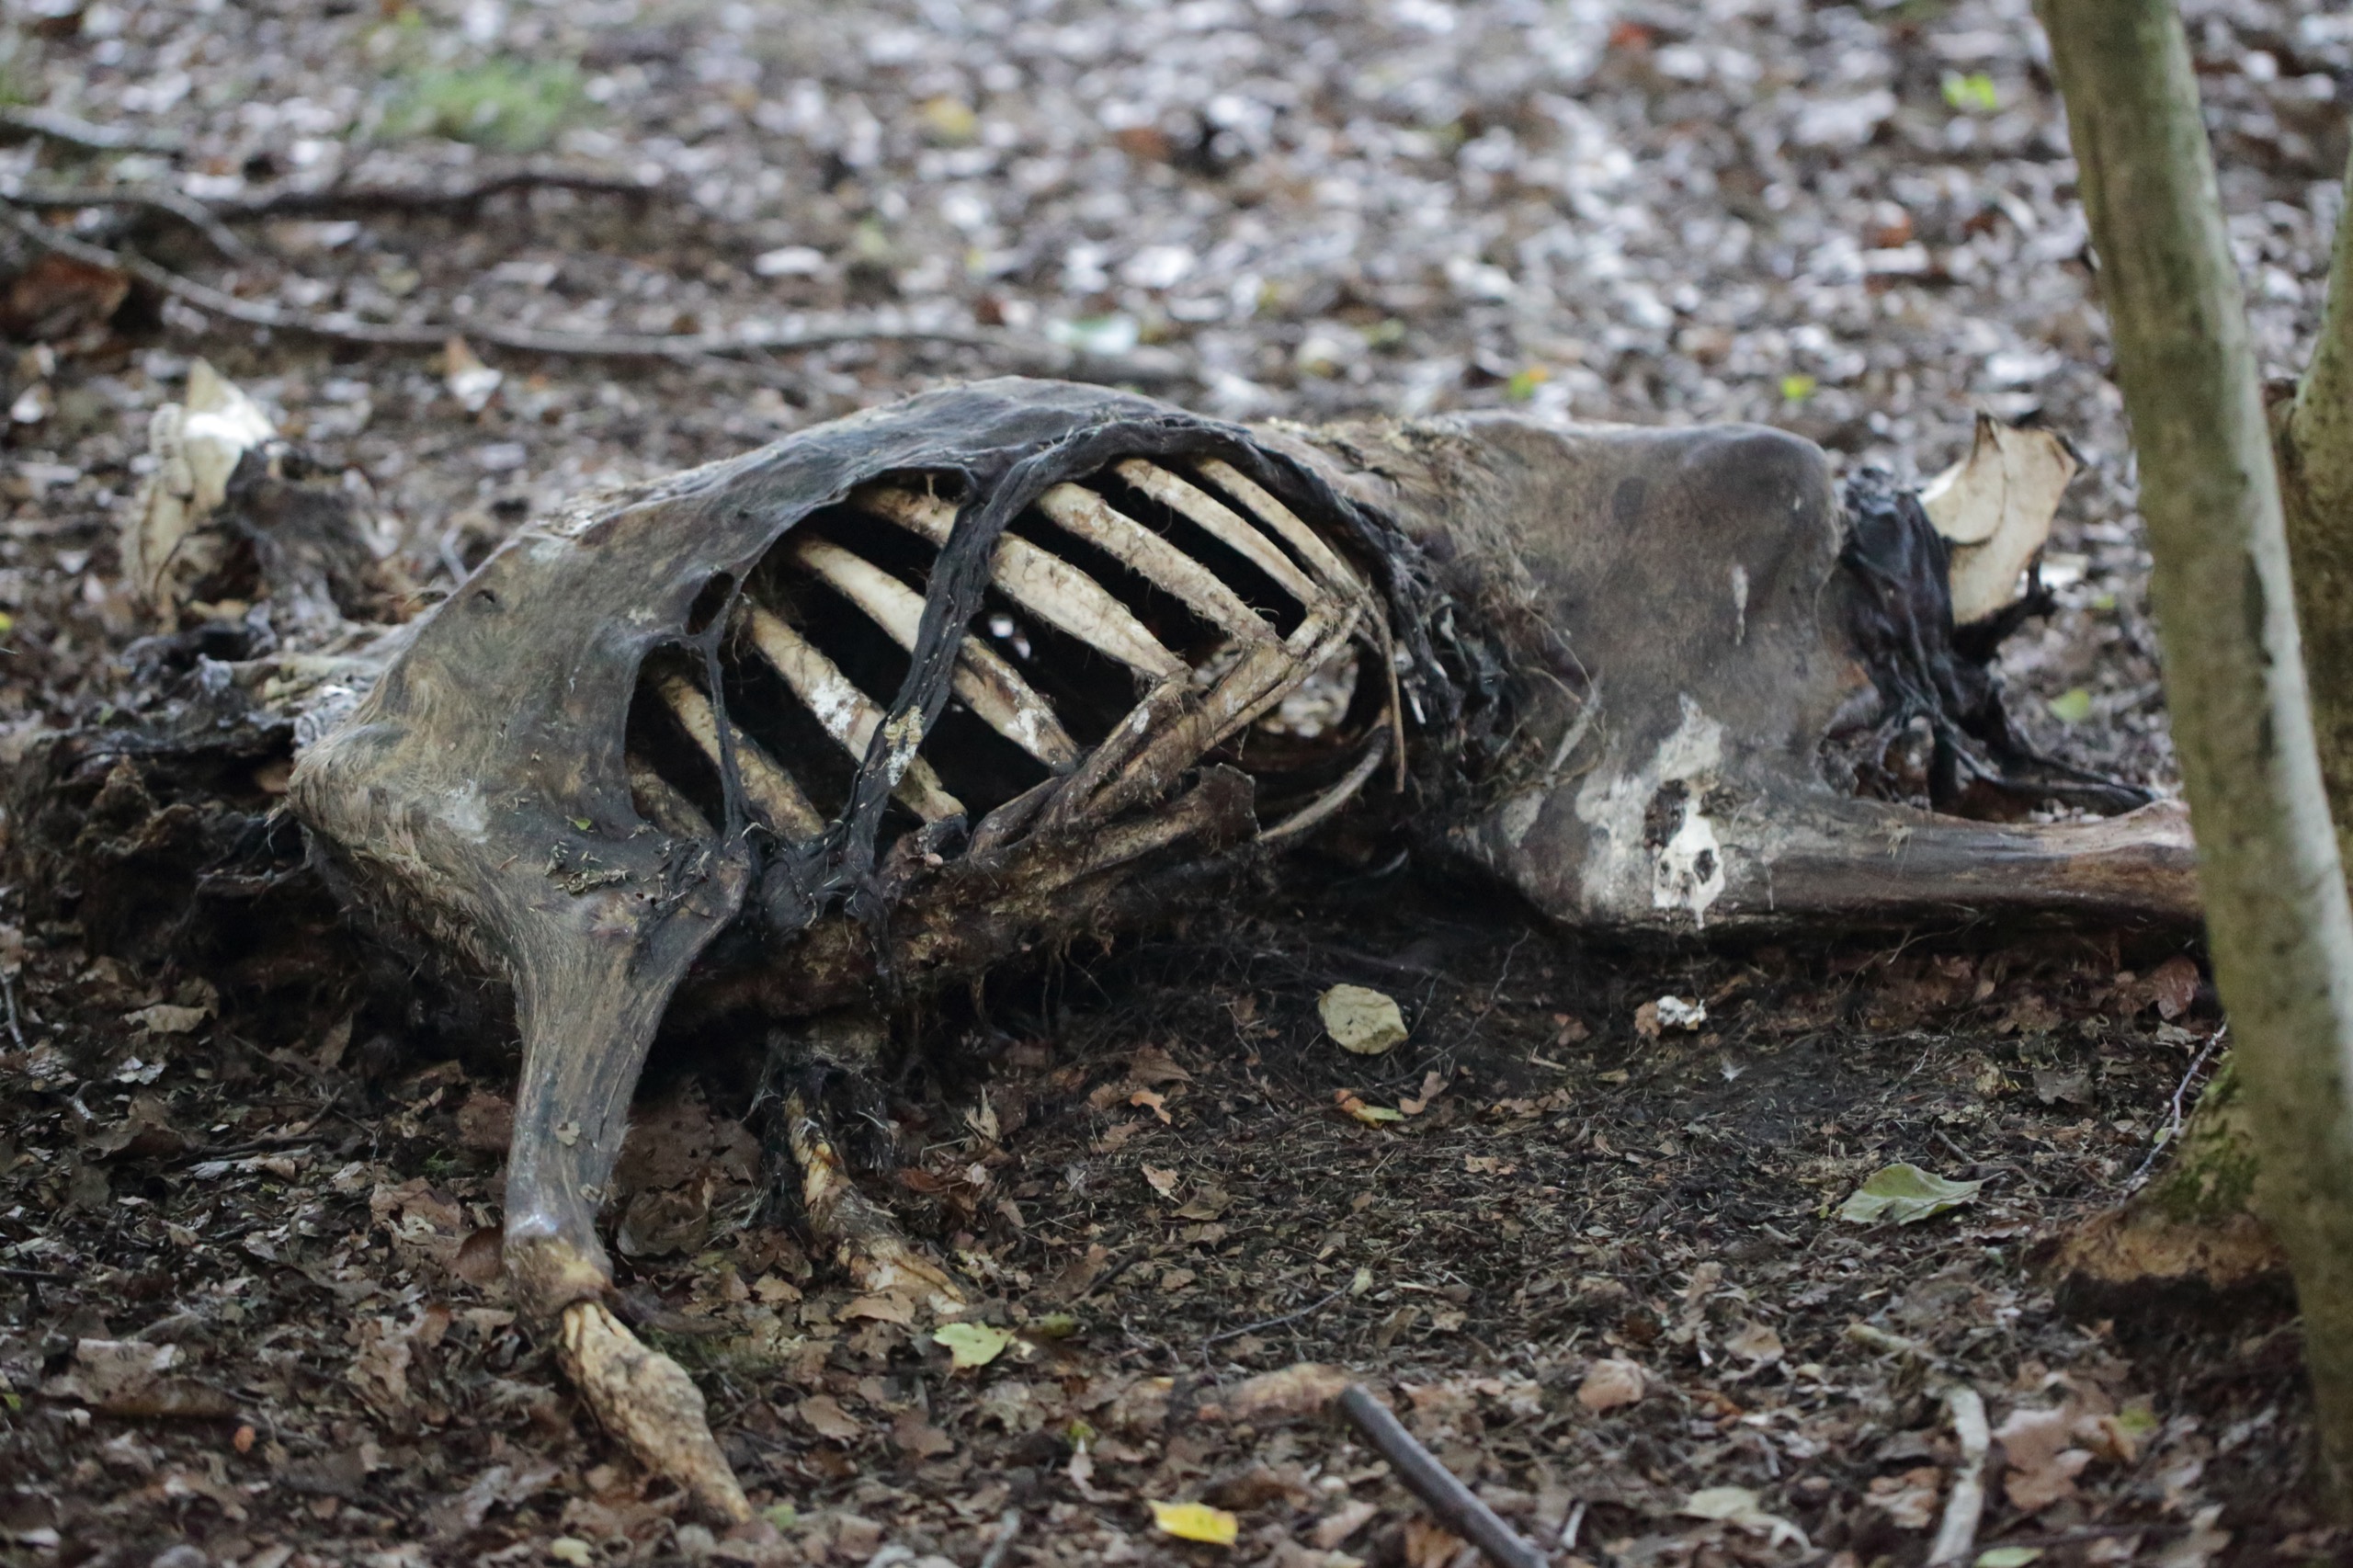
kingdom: Animalia
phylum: Chordata
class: Mammalia
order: Artiodactyla
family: Cervidae
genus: Capreolus
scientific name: Capreolus capreolus
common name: Rådyr
